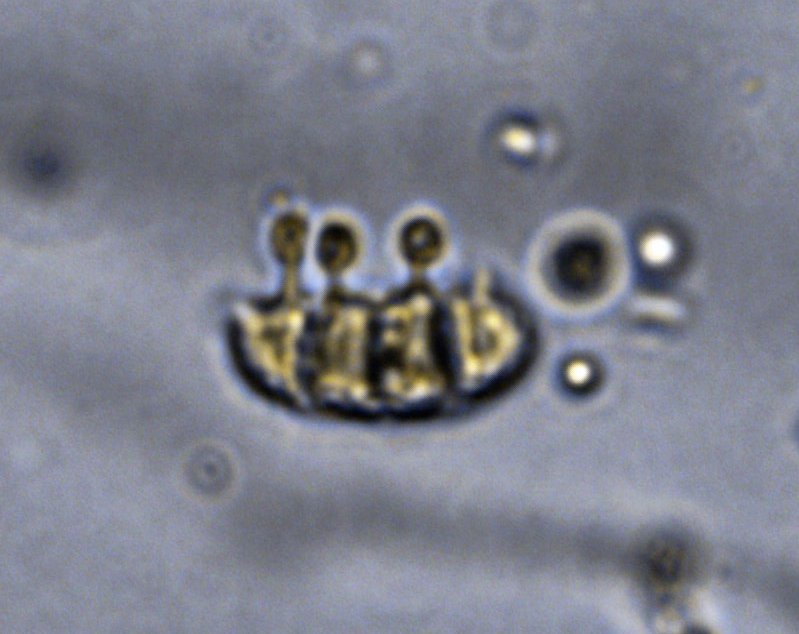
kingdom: Fungi
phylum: Basidiomycota
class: Dacrymycetes
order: Dacrymycetales
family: Dacrymycetaceae
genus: Dacrymyces
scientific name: Dacrymyces lacrymalis
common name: rynket tåresvamp
